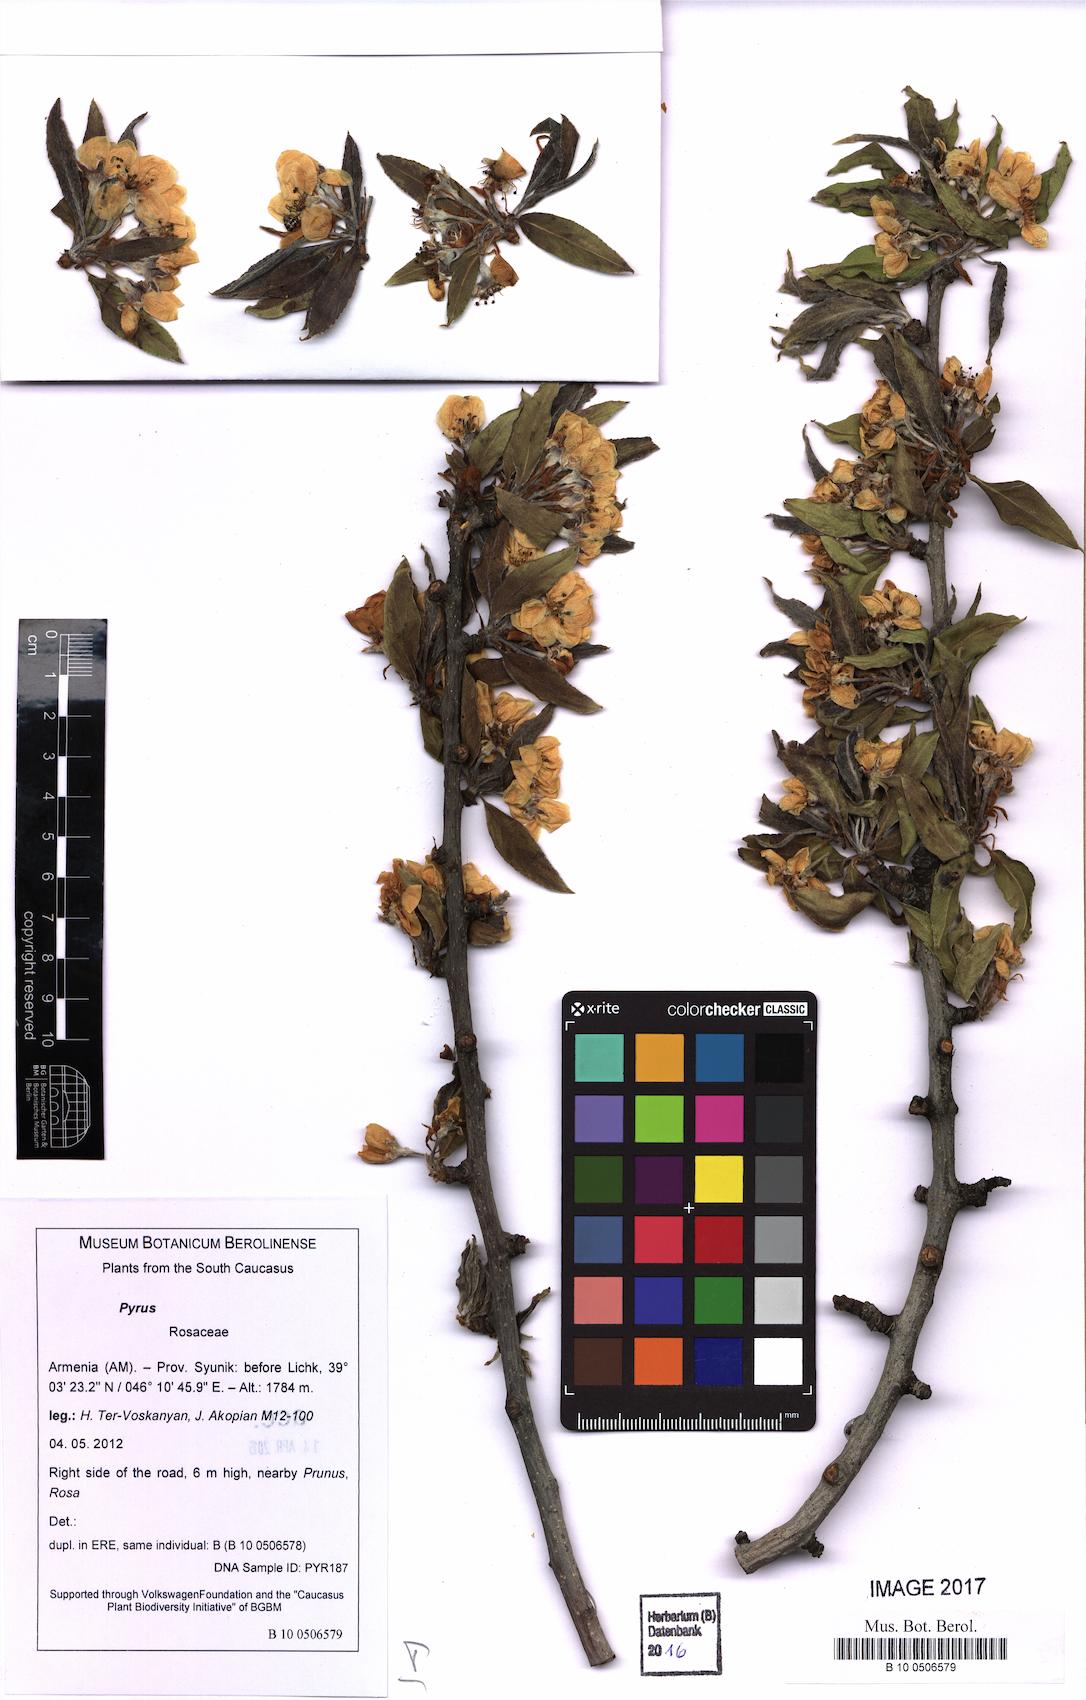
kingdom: Plantae
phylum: Tracheophyta
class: Magnoliopsida
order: Rosales
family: Rosaceae
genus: Pyrus
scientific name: Pyrus zangezura
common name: Zangezurian pear
